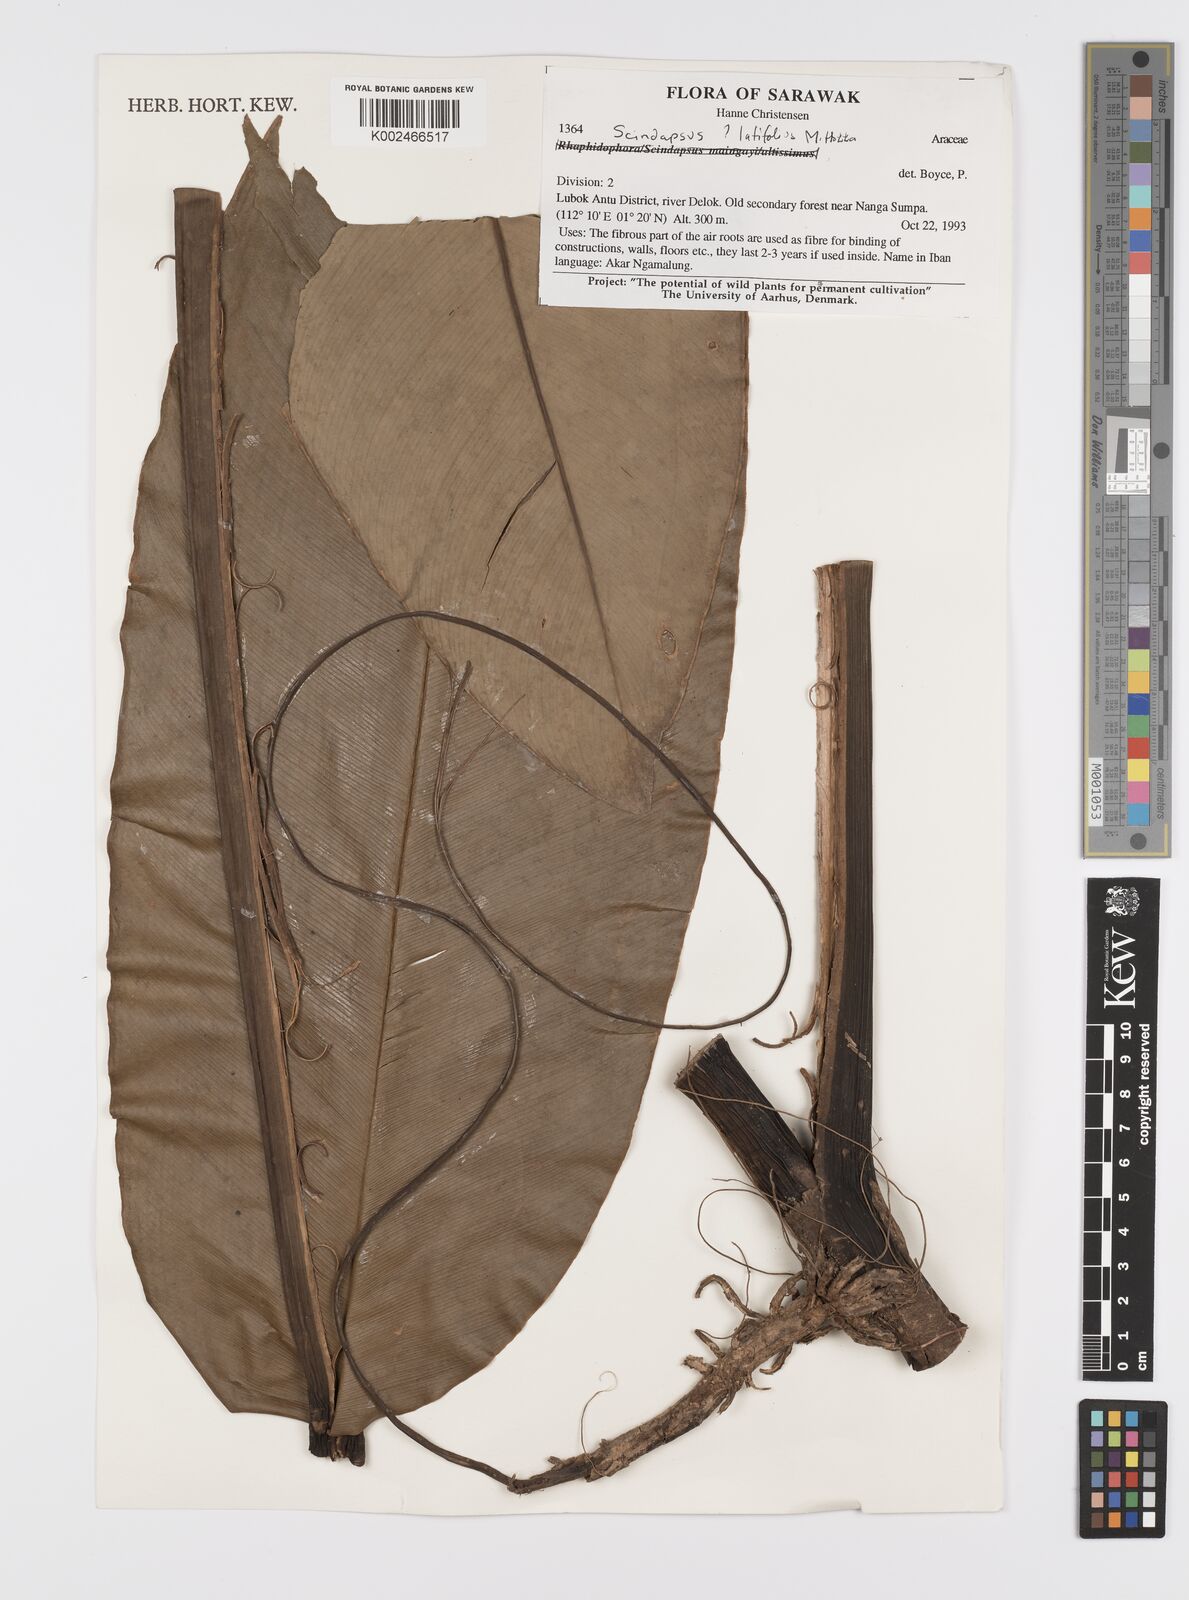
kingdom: Plantae
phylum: Tracheophyta
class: Liliopsida
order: Alismatales
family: Araceae
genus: Scindapsus
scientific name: Scindapsus latifolius
